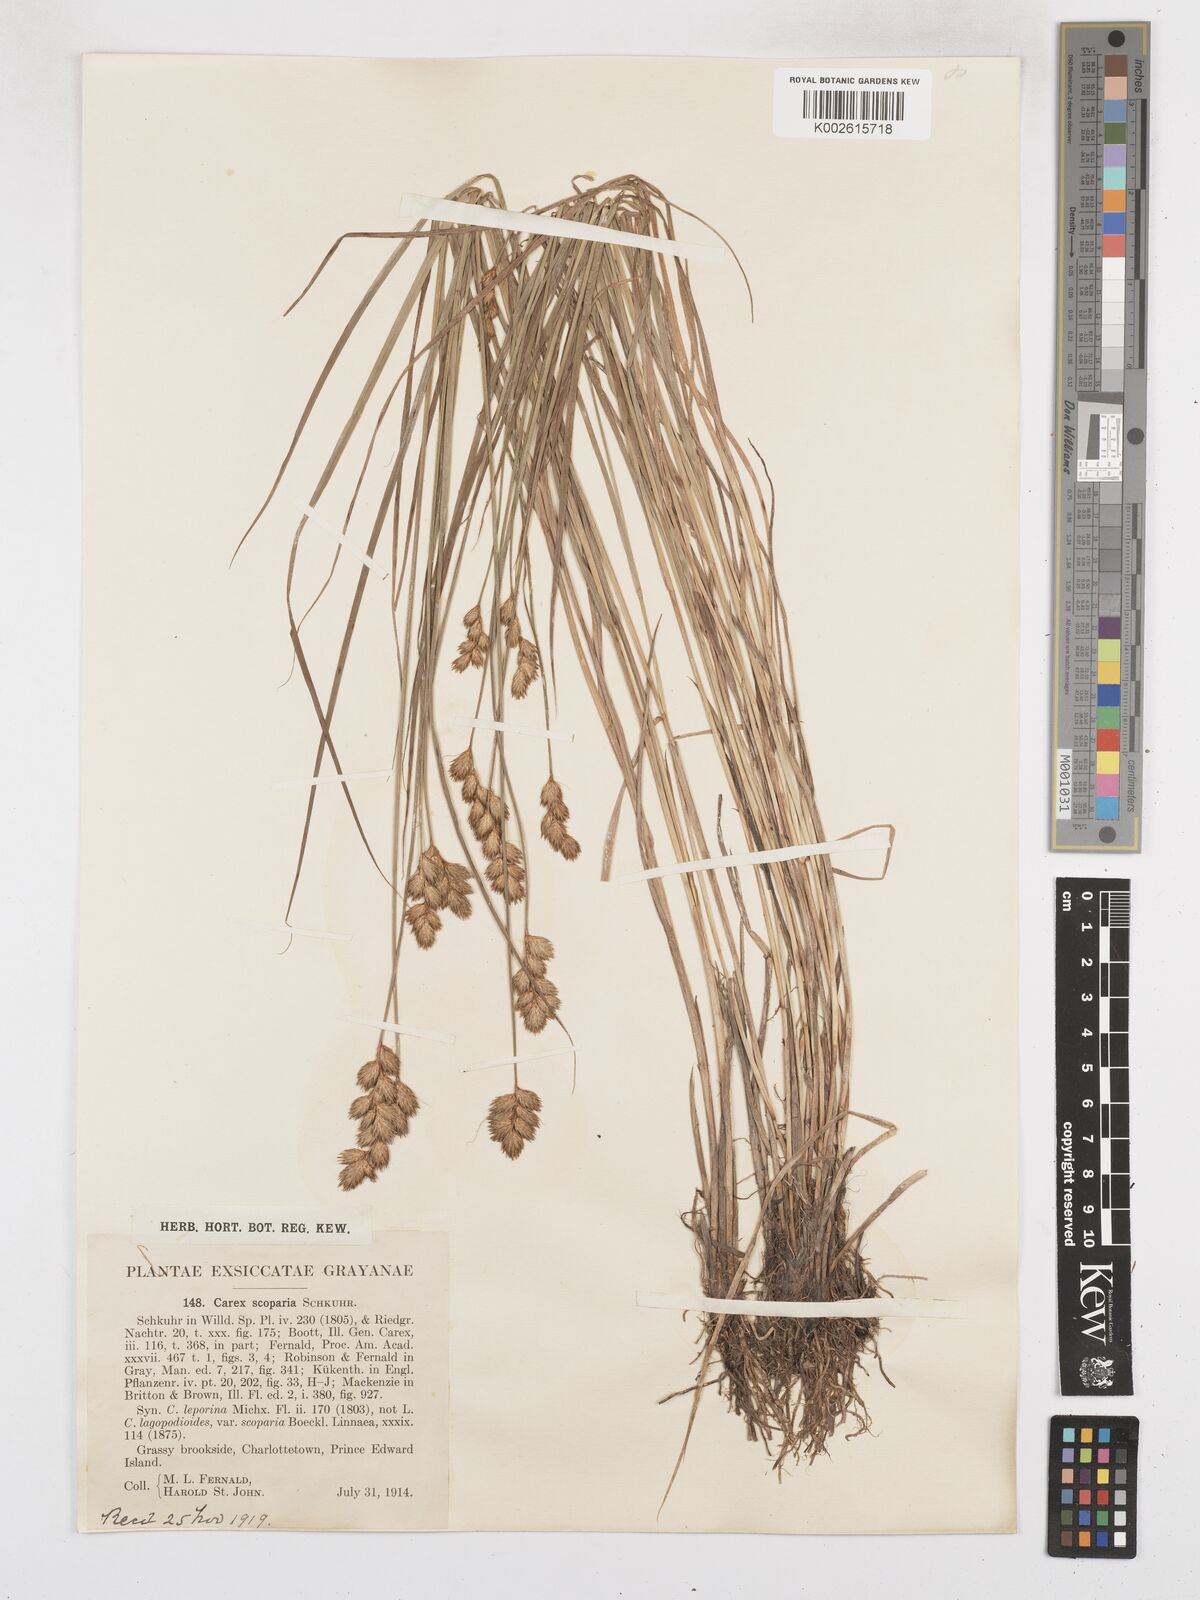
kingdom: Plantae
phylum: Tracheophyta
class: Liliopsida
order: Poales
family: Cyperaceae
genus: Carex
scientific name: Carex leporina
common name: Oval sedge
